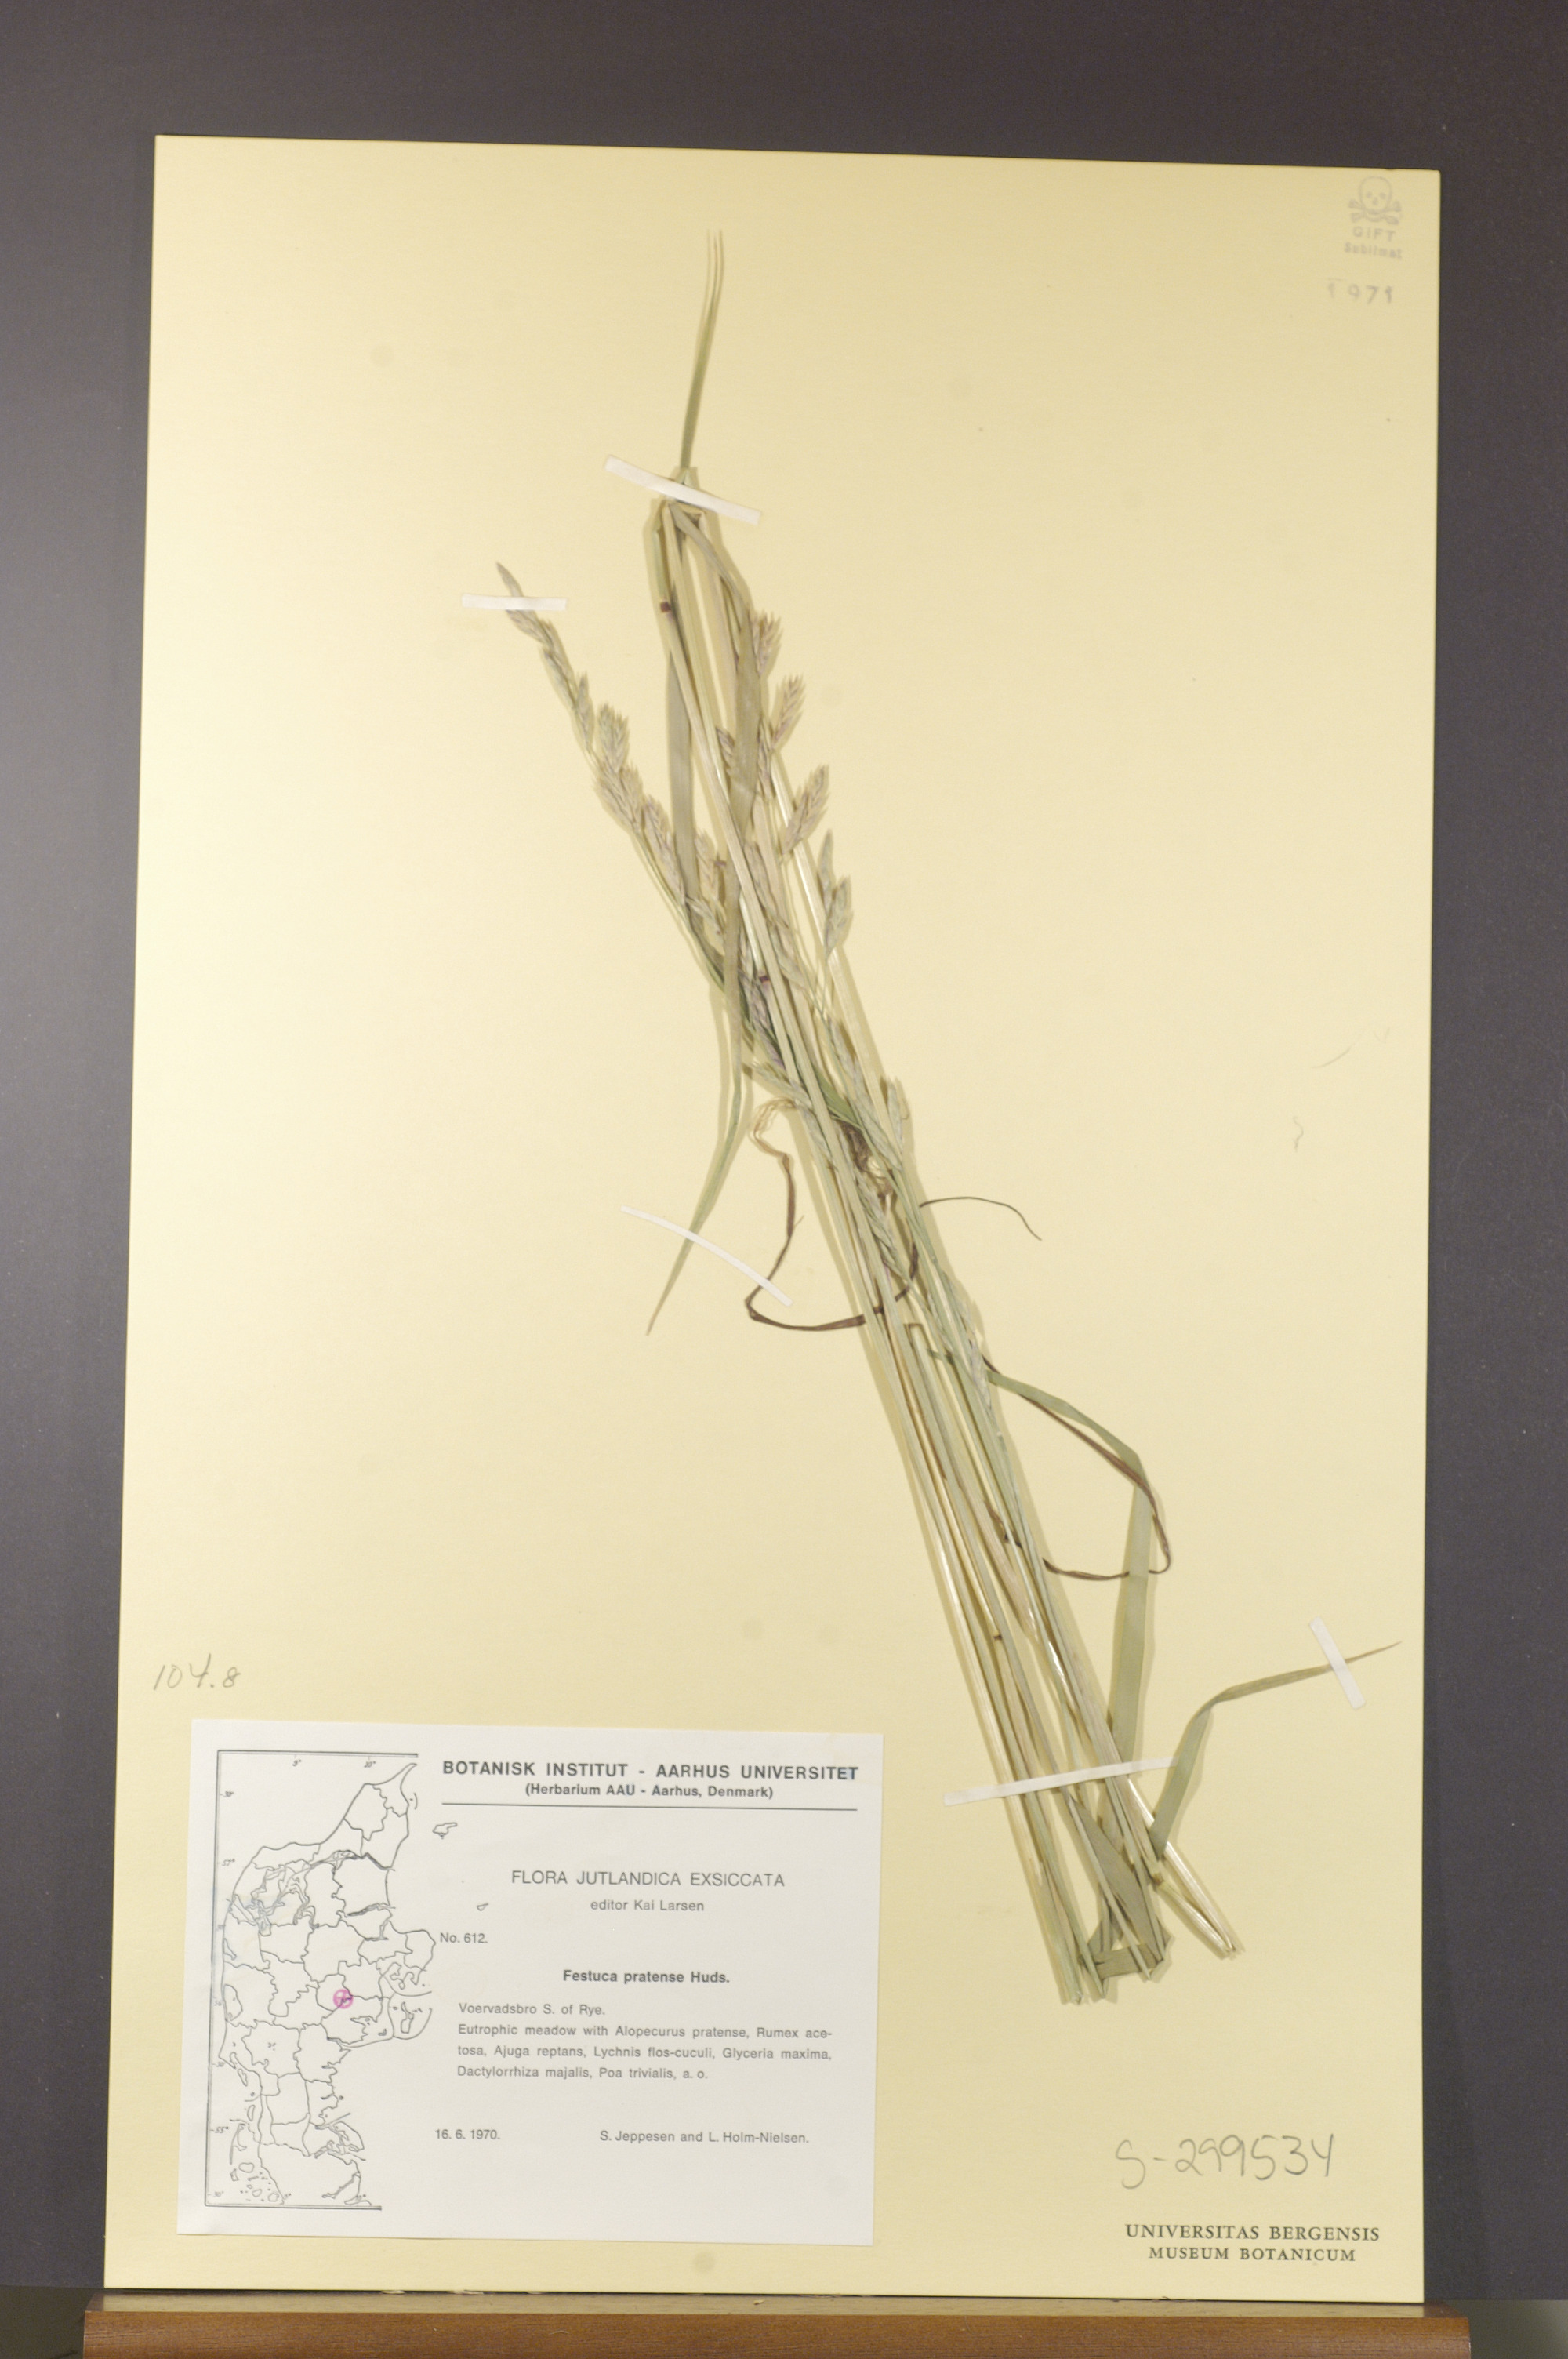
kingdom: Plantae
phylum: Tracheophyta
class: Liliopsida
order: Poales
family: Poaceae
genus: Lolium
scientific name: Lolium pratense
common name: Dover grass
